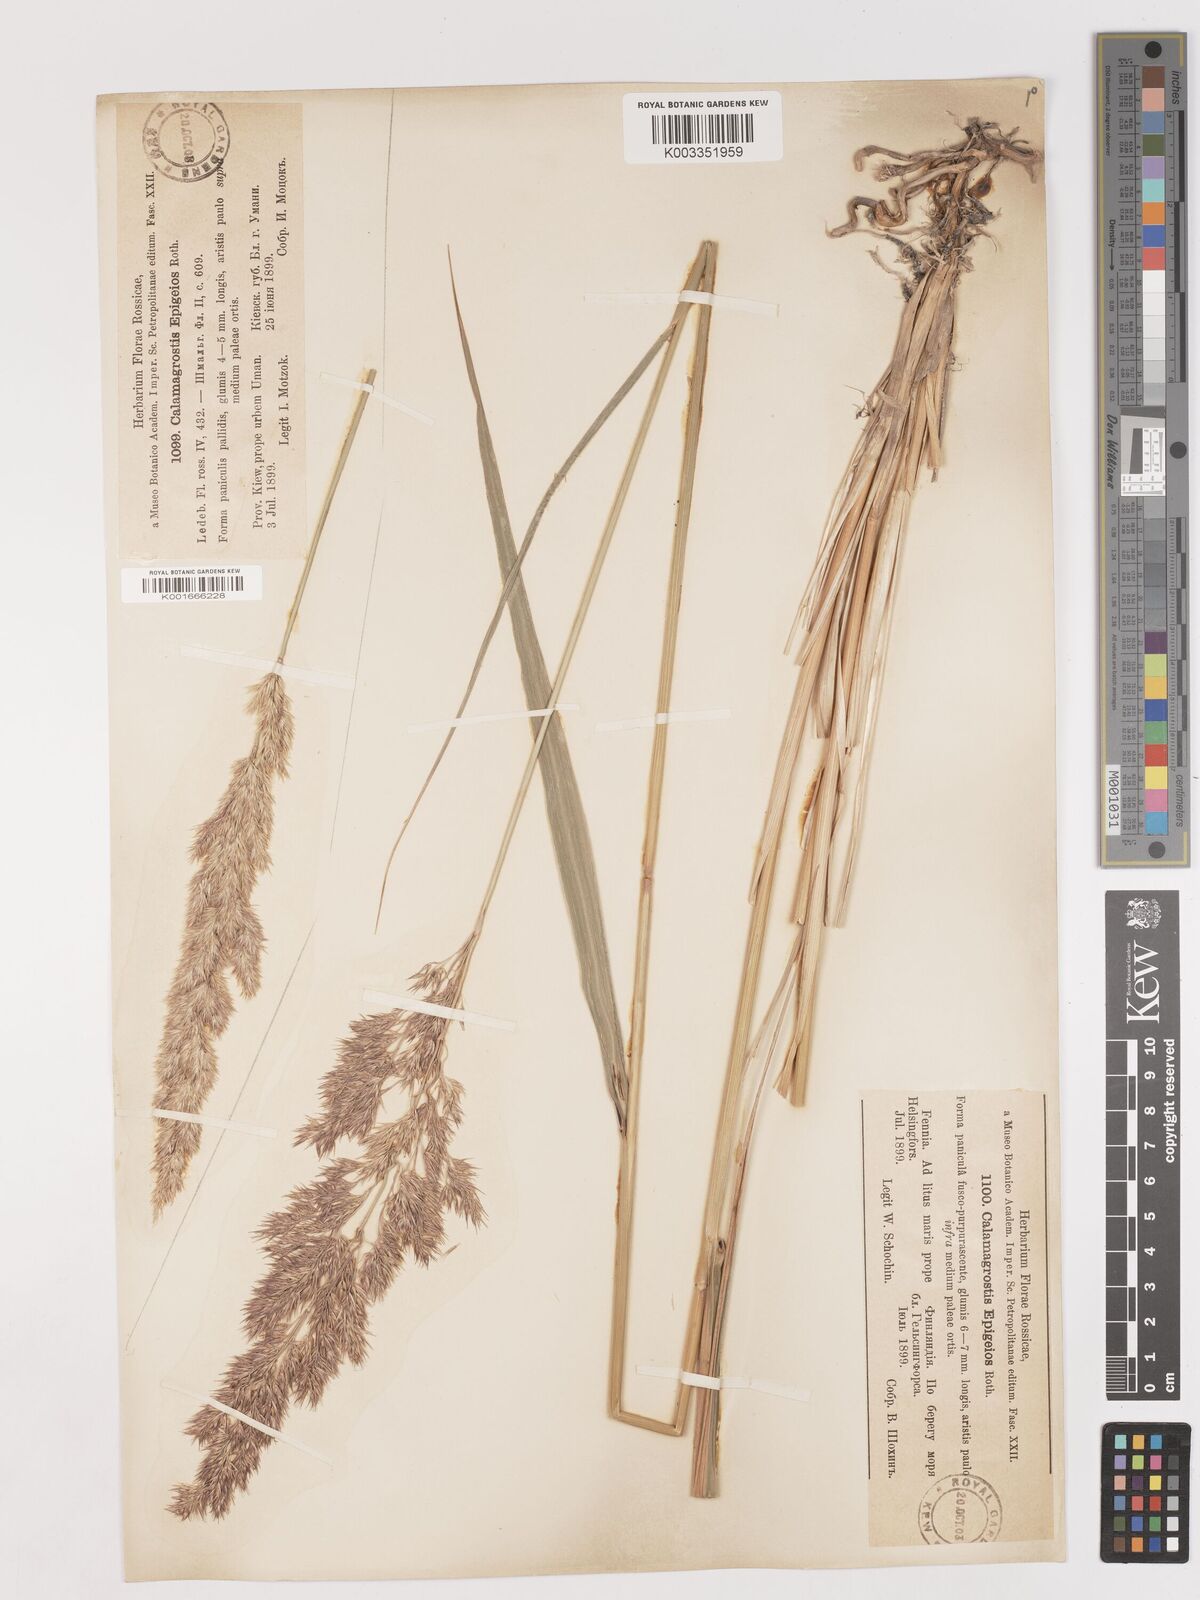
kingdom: Plantae
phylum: Tracheophyta
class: Liliopsida
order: Poales
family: Poaceae
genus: Calamagrostis
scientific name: Calamagrostis epigejos
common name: Wood small-reed
